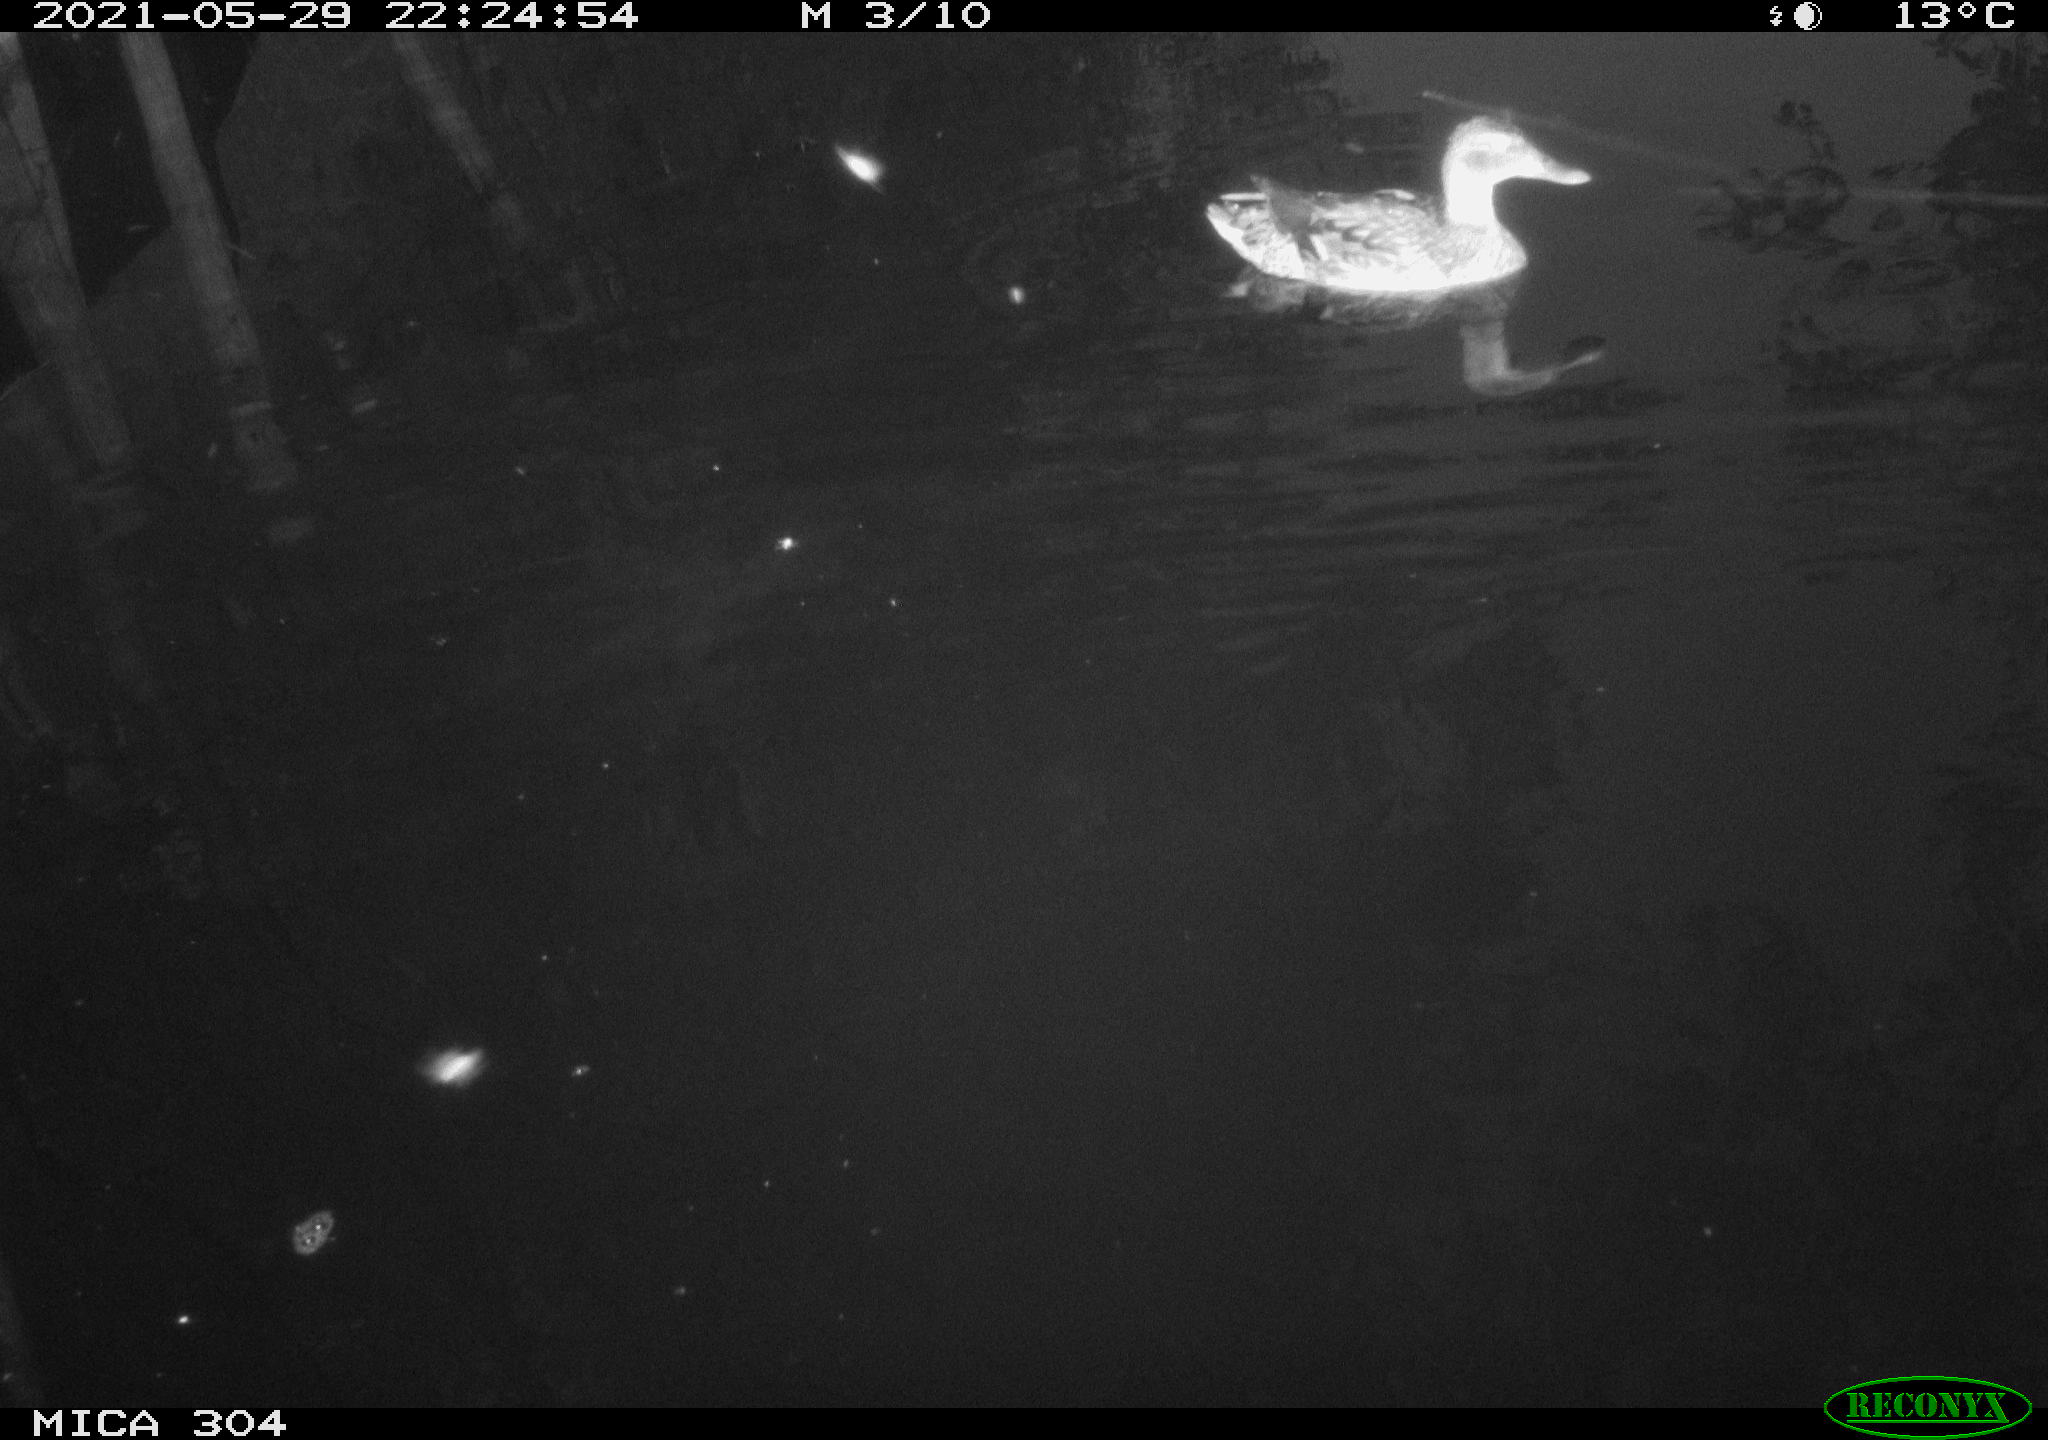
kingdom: Animalia
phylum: Chordata
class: Aves
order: Anseriformes
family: Anatidae
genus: Anas
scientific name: Anas platyrhynchos
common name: Mallard
